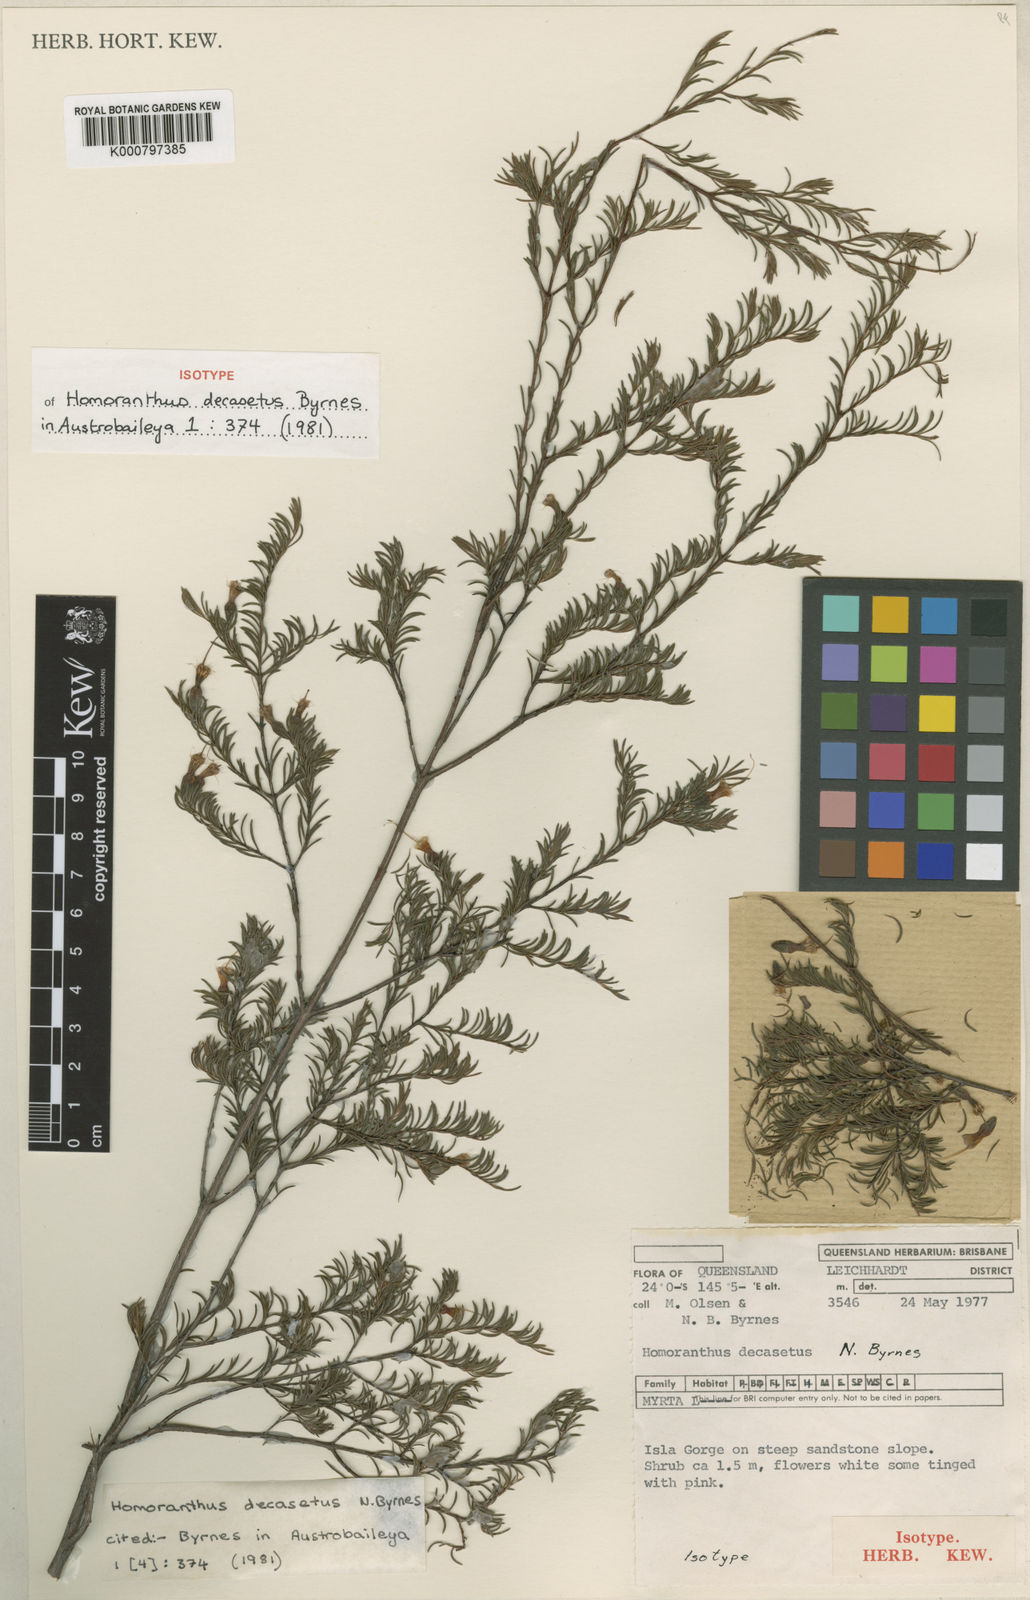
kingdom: Plantae
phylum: Tracheophyta
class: Magnoliopsida
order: Myrtales
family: Myrtaceae
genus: Homoranthus
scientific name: Homoranthus decasetus
